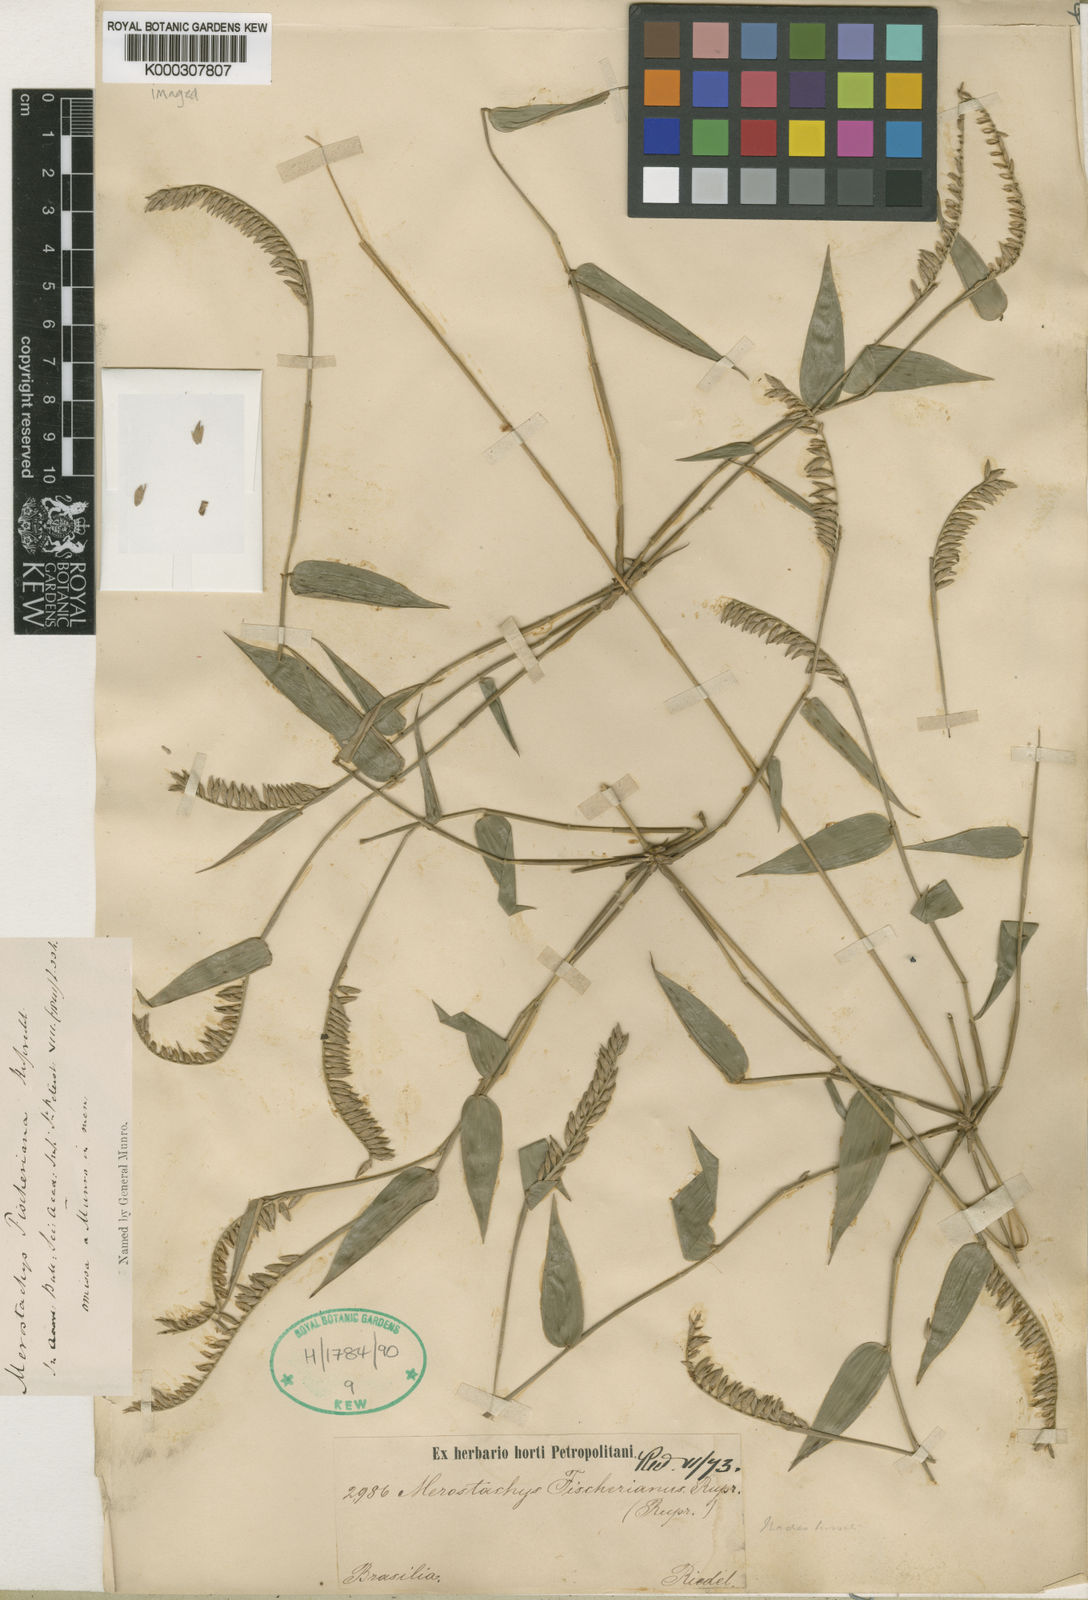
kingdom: Plantae
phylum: Tracheophyta
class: Liliopsida
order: Poales
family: Poaceae
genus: Merostachys
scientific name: Merostachys fischeriana
